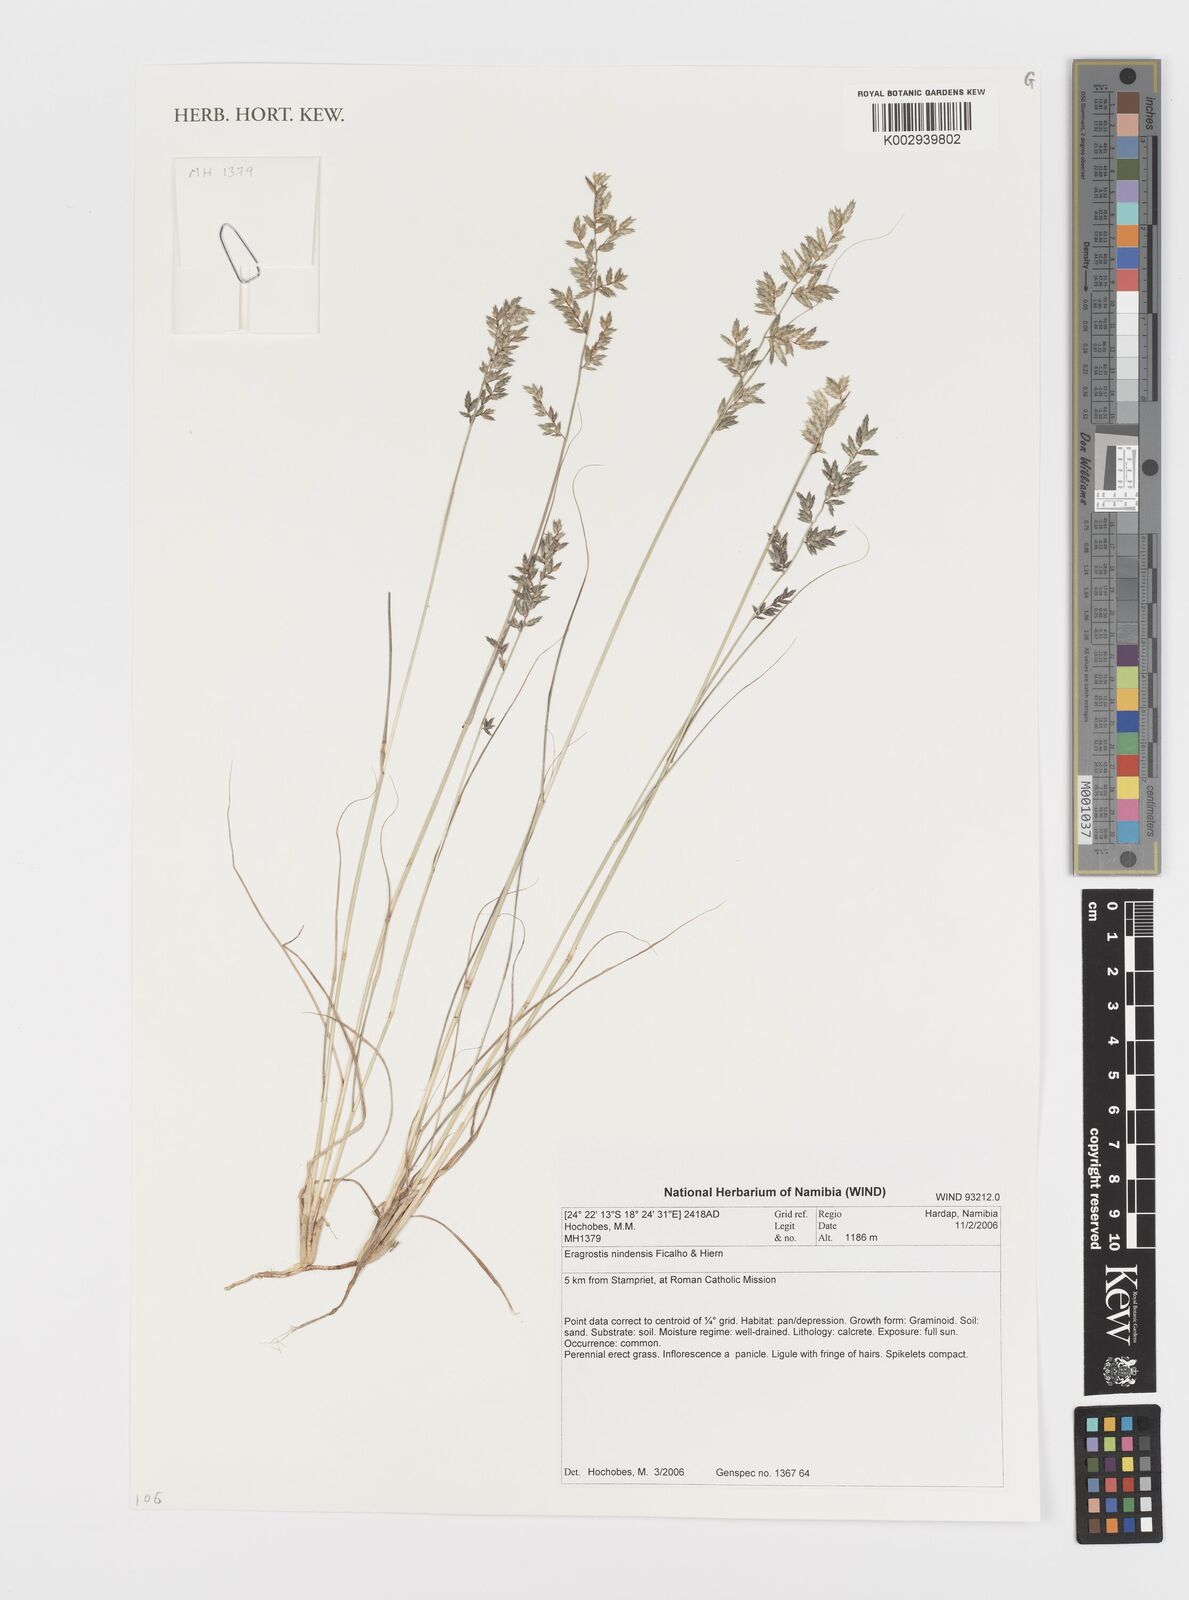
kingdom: Plantae
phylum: Tracheophyta
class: Liliopsida
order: Poales
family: Poaceae
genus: Eragrostis
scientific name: Eragrostis nindensis
